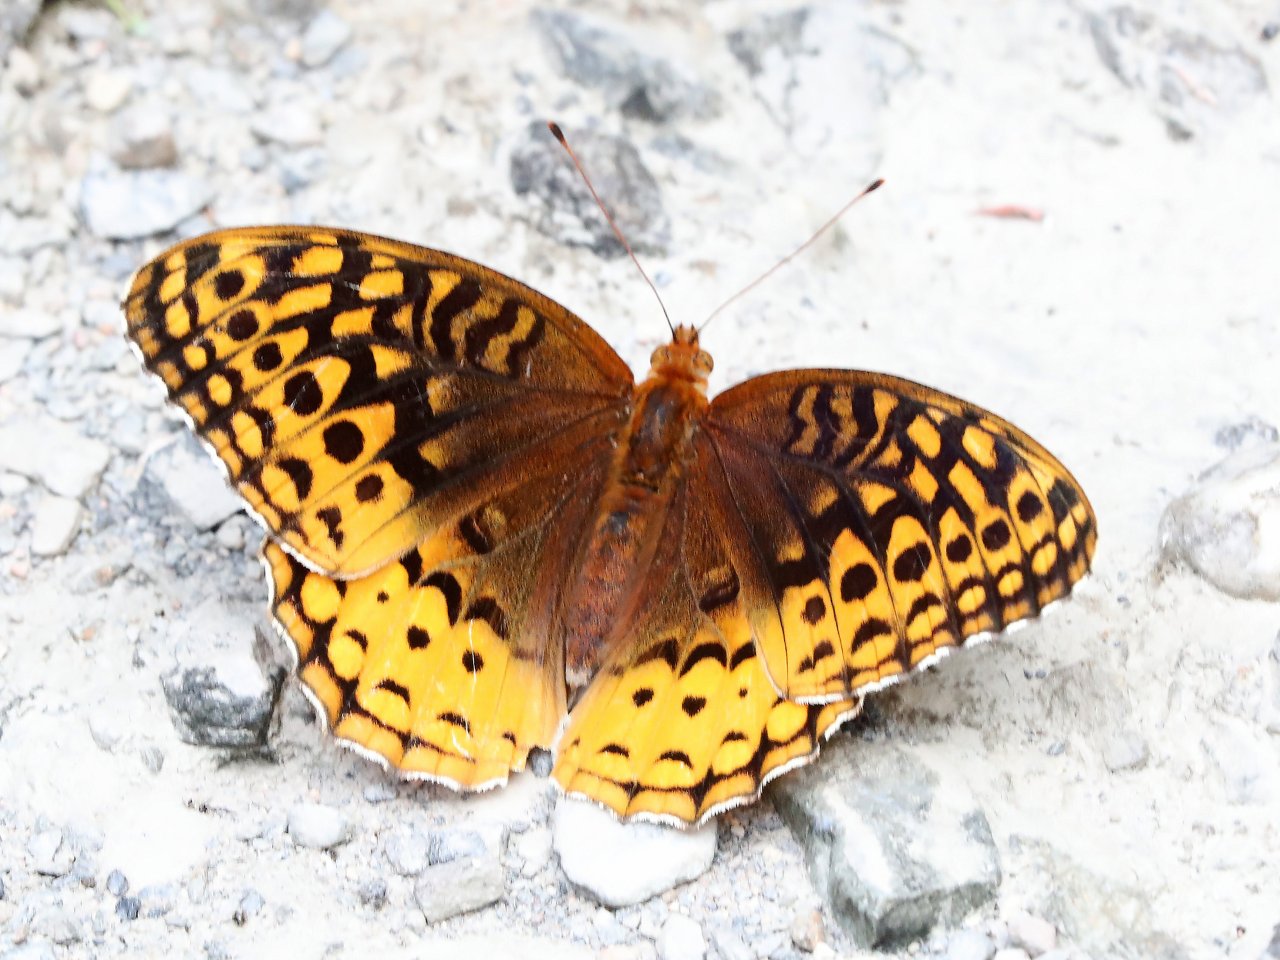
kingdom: Animalia
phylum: Arthropoda
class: Insecta
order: Lepidoptera
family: Nymphalidae
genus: Speyeria
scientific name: Speyeria cybele
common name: Great Spangled Fritillary
